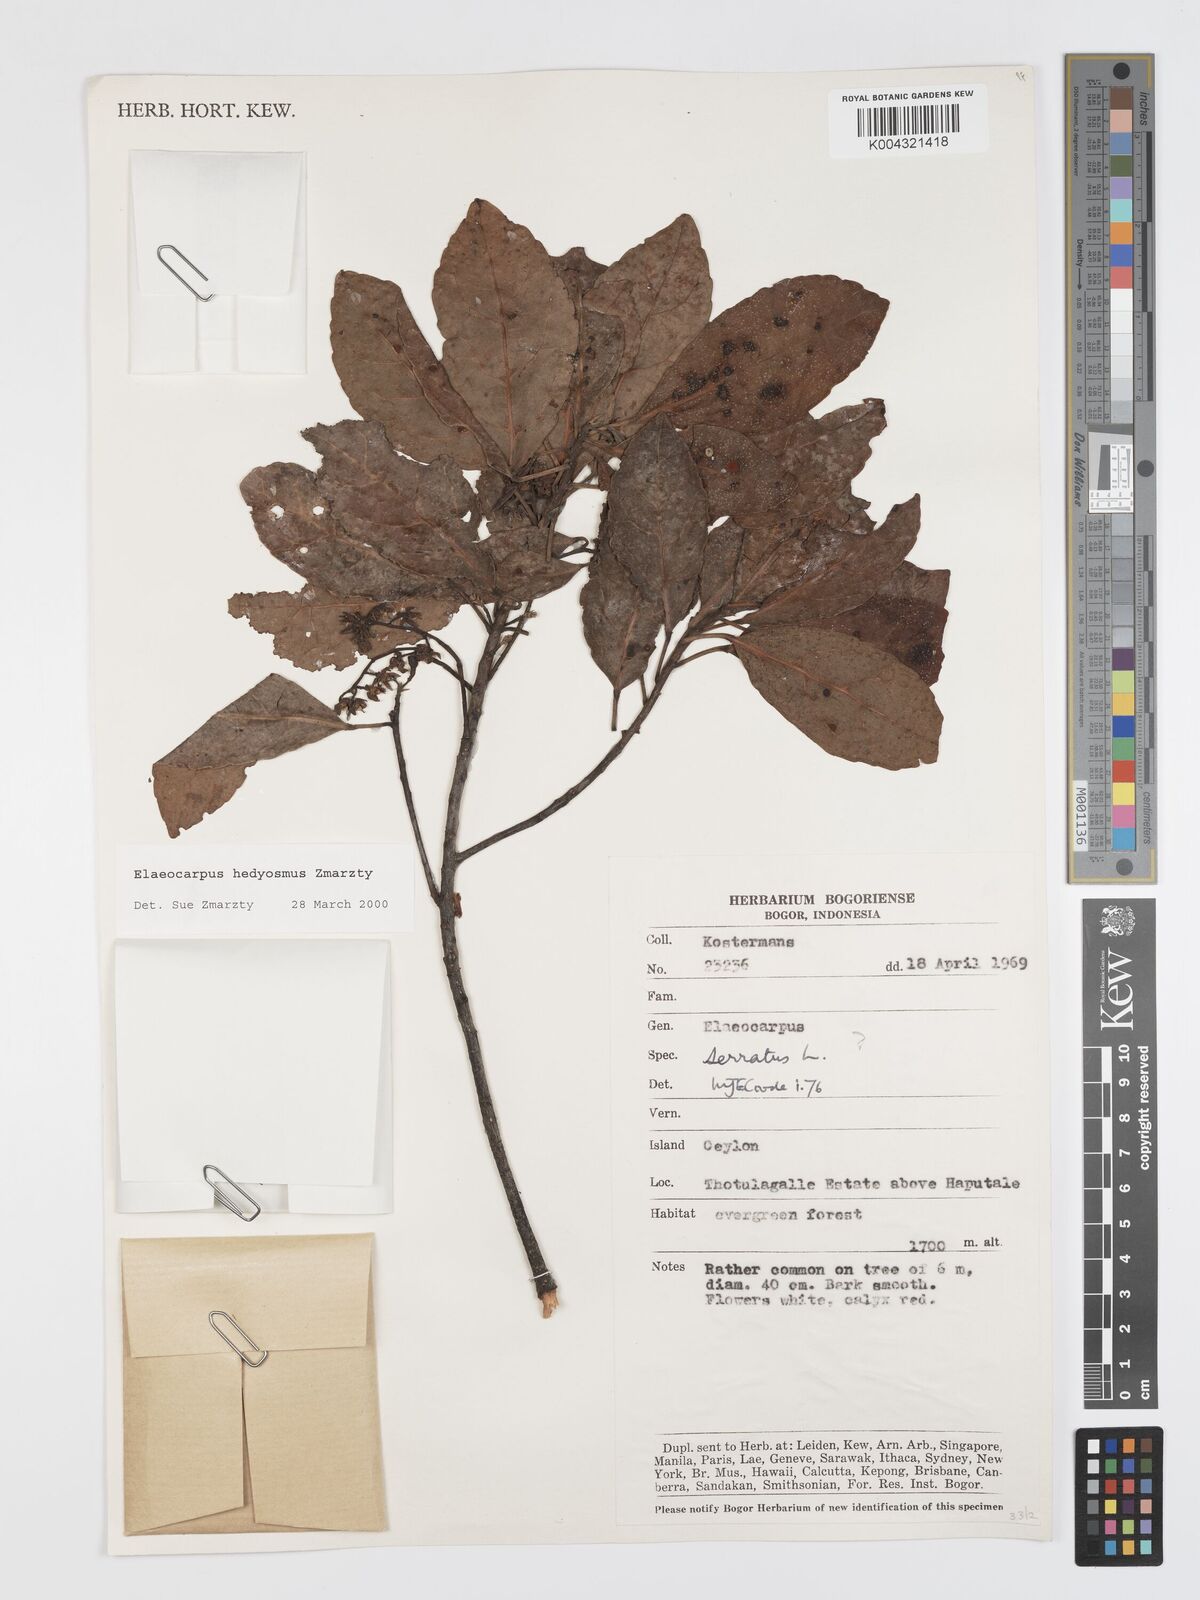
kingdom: Plantae
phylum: Tracheophyta
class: Magnoliopsida
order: Oxalidales
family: Elaeocarpaceae
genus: Elaeocarpus
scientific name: Elaeocarpus hedyosmus
